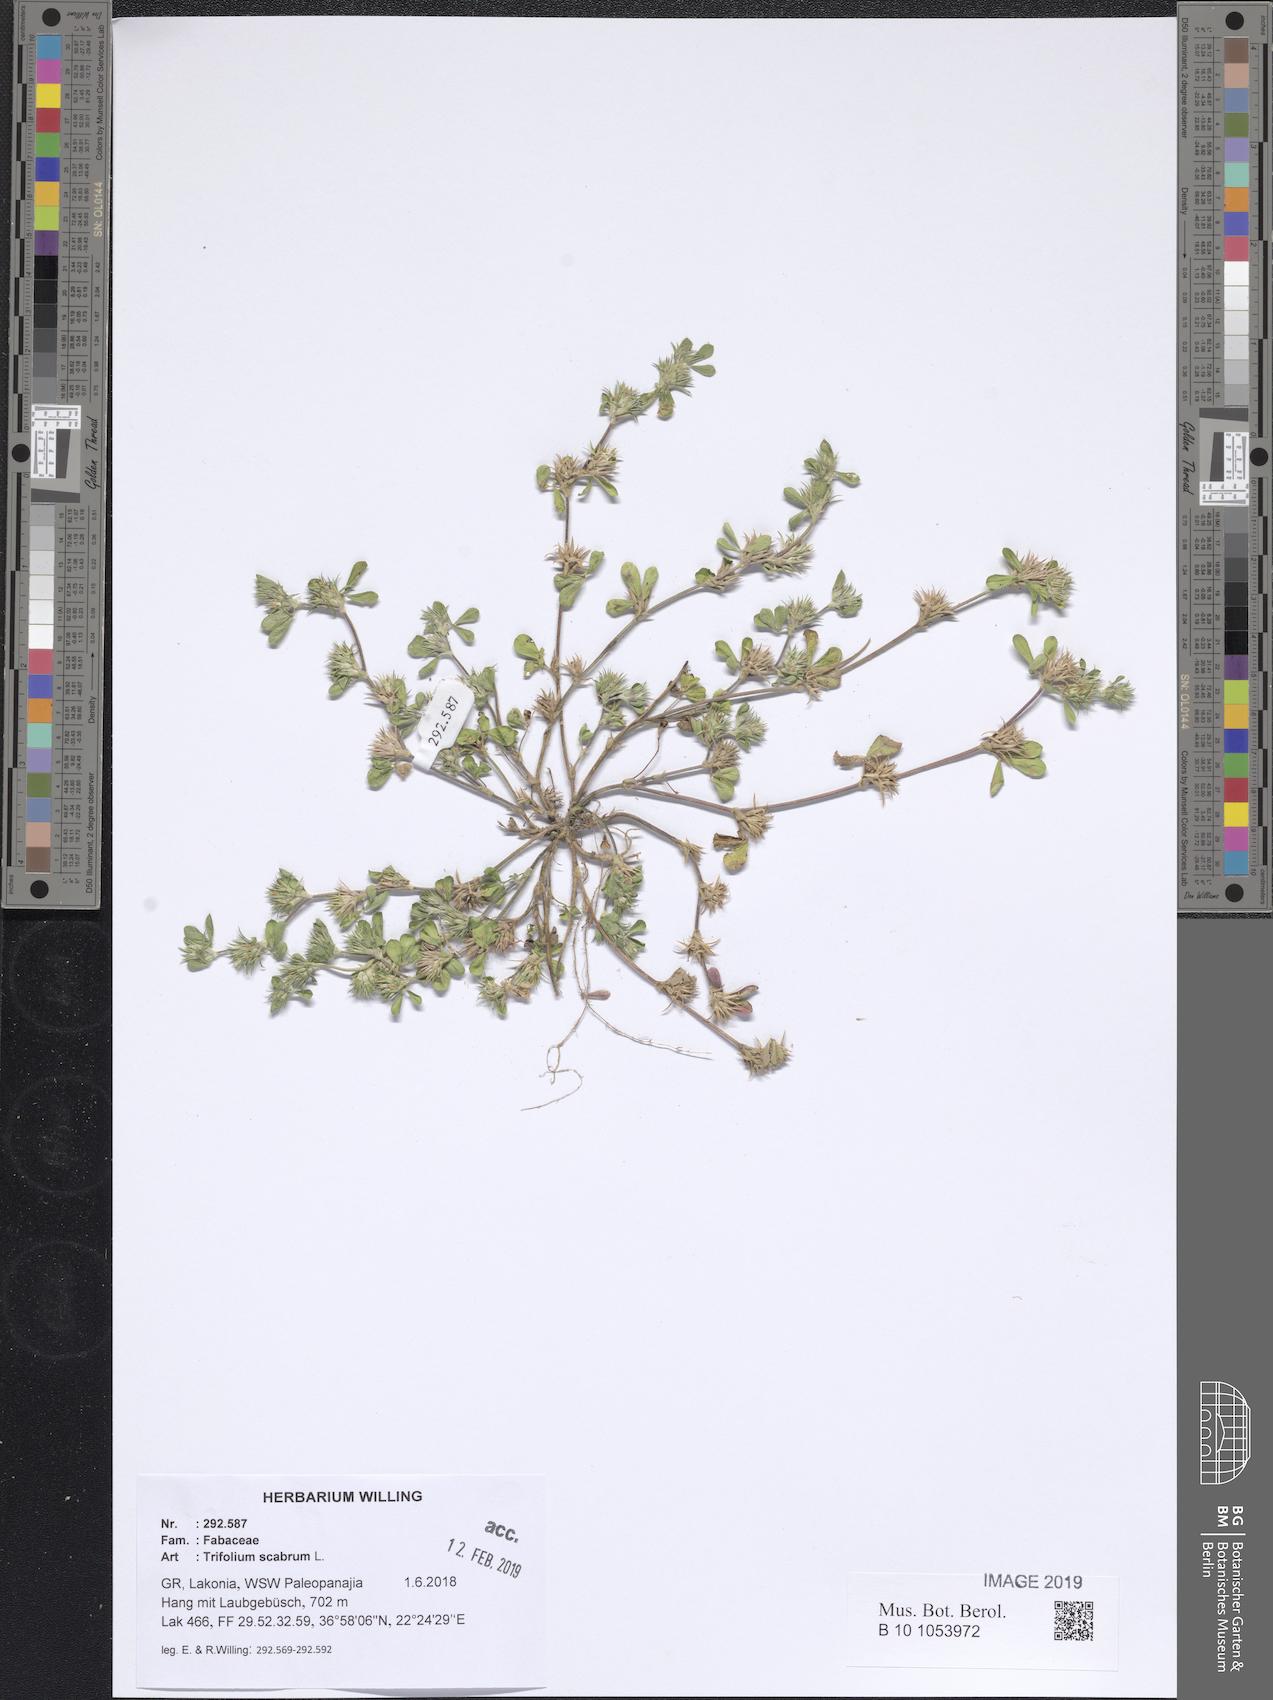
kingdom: Plantae
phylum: Tracheophyta
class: Magnoliopsida
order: Fabales
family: Fabaceae
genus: Trifolium
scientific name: Trifolium scabrum
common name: Rough clover
